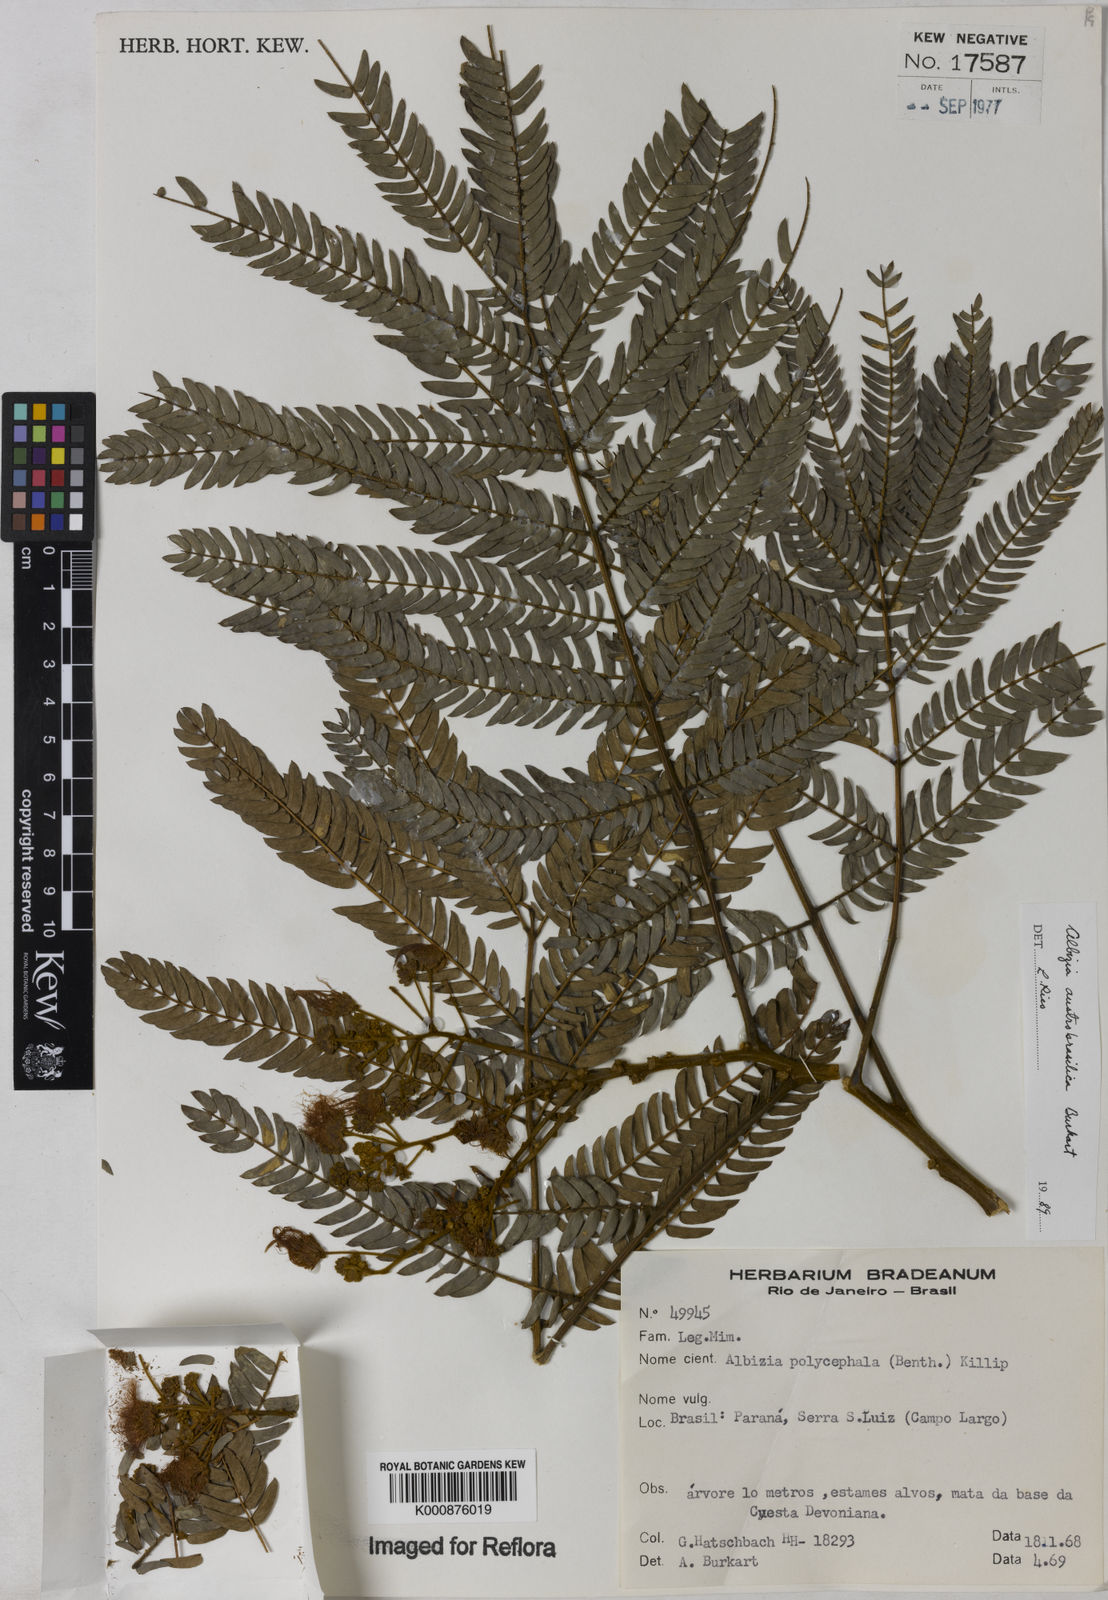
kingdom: Plantae
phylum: Tracheophyta
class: Magnoliopsida
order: Fabales
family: Fabaceae
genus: Albizia
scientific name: Albizia edwallii
